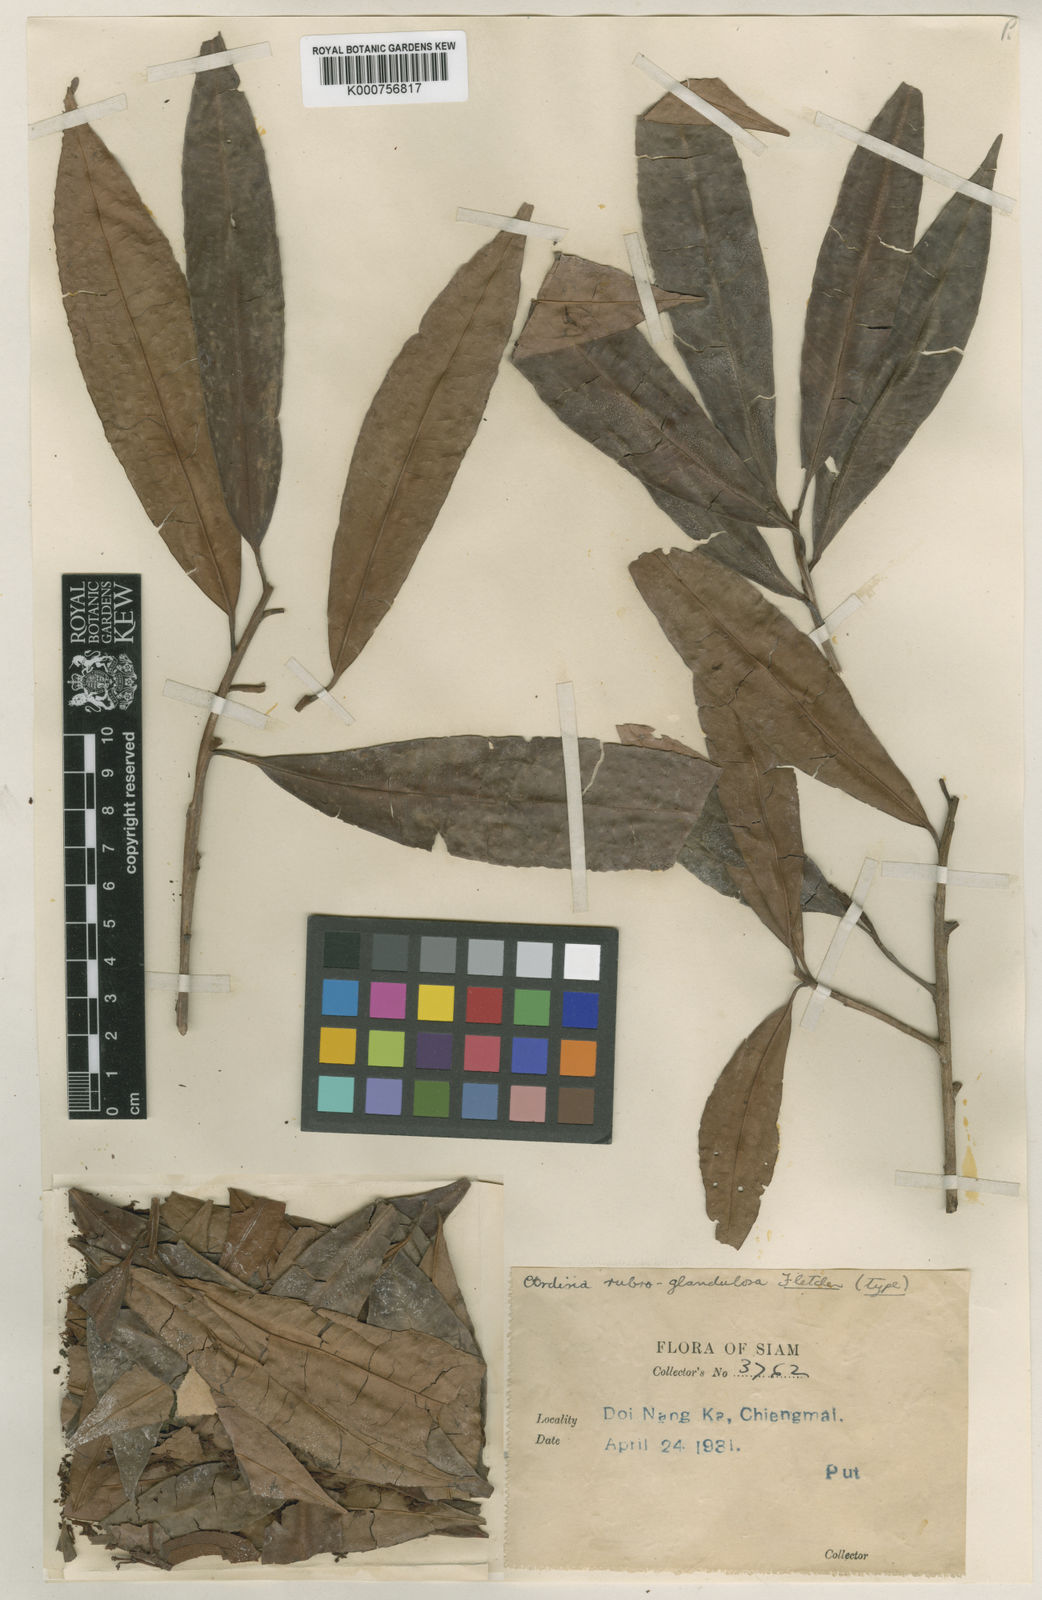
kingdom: Plantae
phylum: Tracheophyta
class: Magnoliopsida
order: Ericales
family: Primulaceae
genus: Ardisia
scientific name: Ardisia rubroglandulosa
